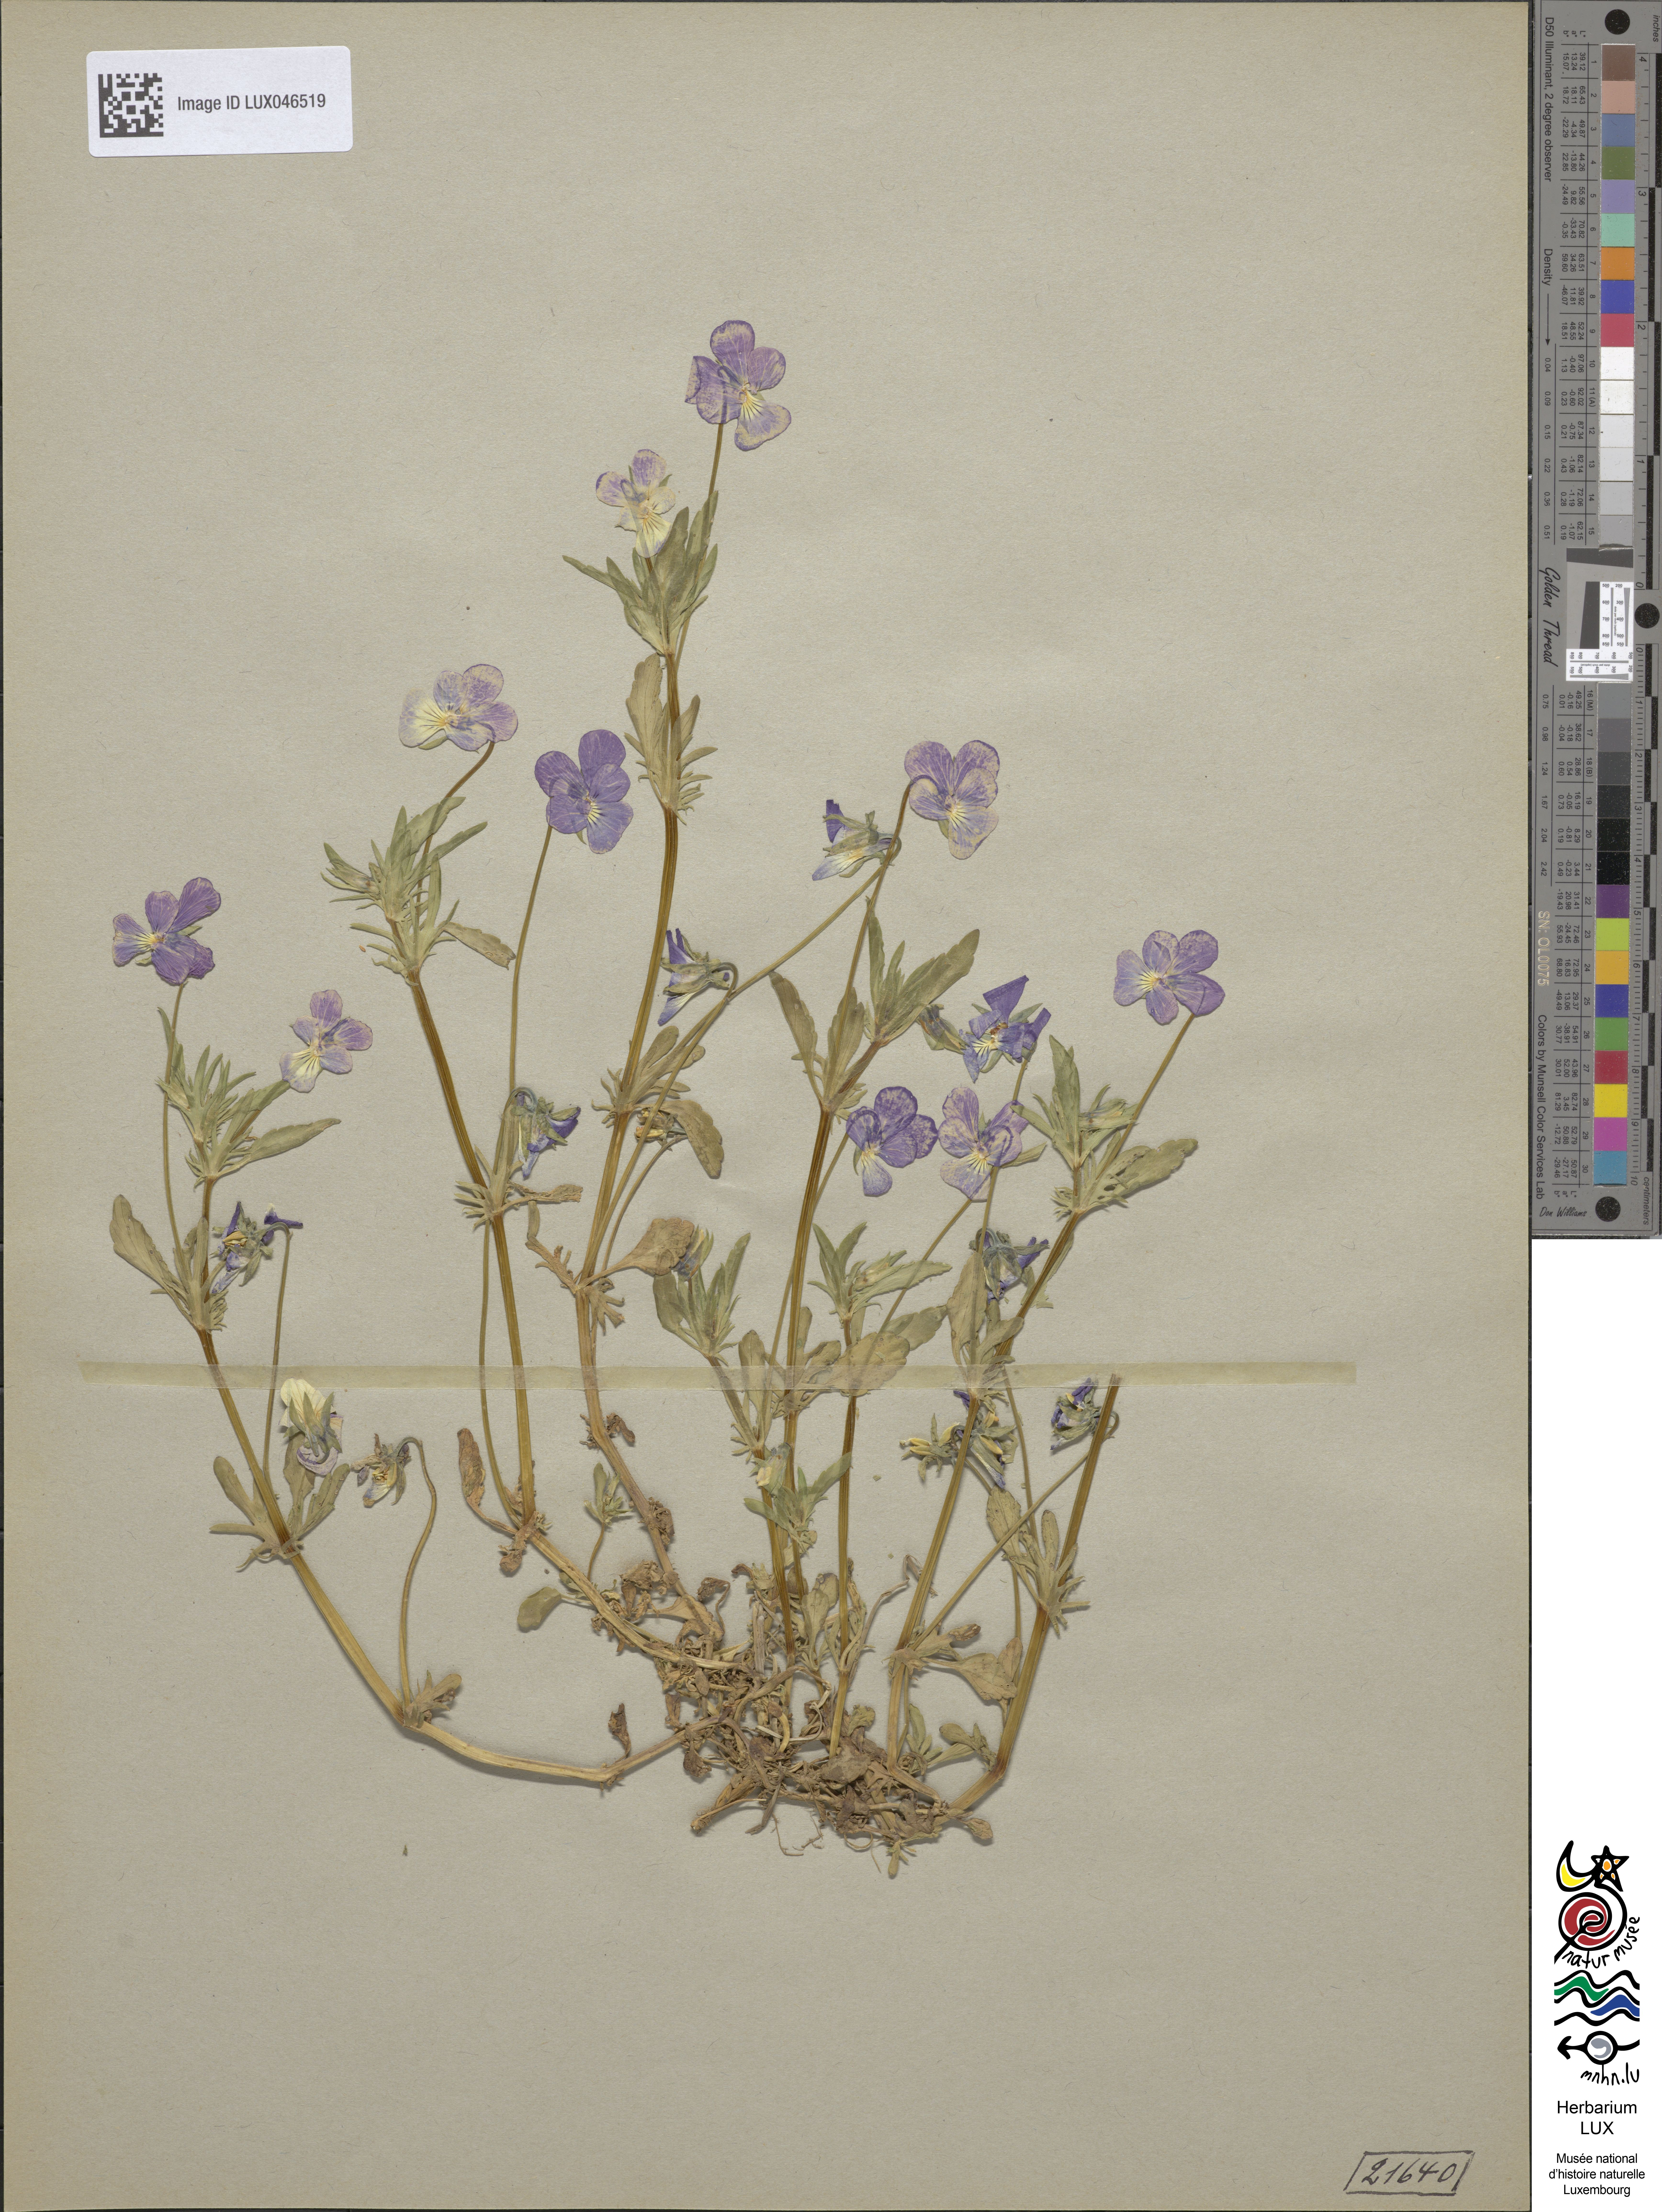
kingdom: Plantae
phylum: Tracheophyta
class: Magnoliopsida
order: Malpighiales
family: Violaceae
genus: Viola
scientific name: Viola tricolor
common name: Pansy
